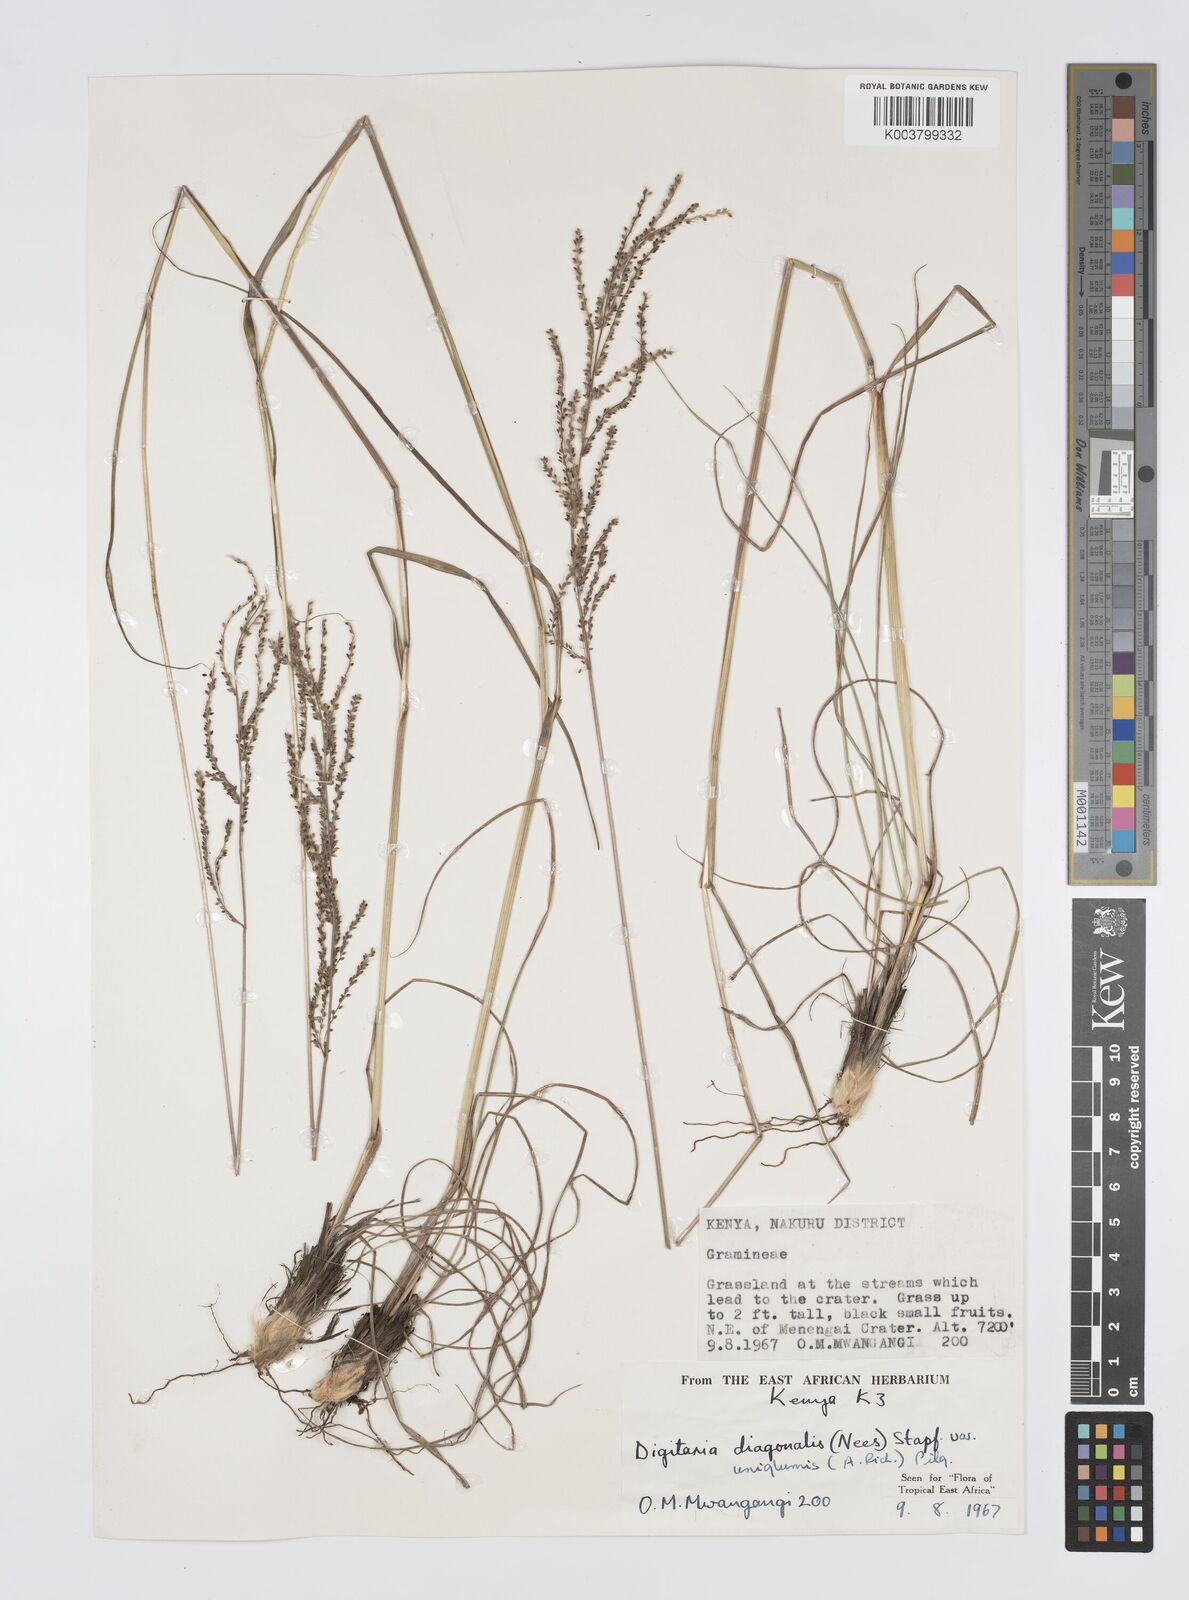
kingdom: Plantae
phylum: Tracheophyta
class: Liliopsida
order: Poales
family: Poaceae
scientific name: Poaceae
